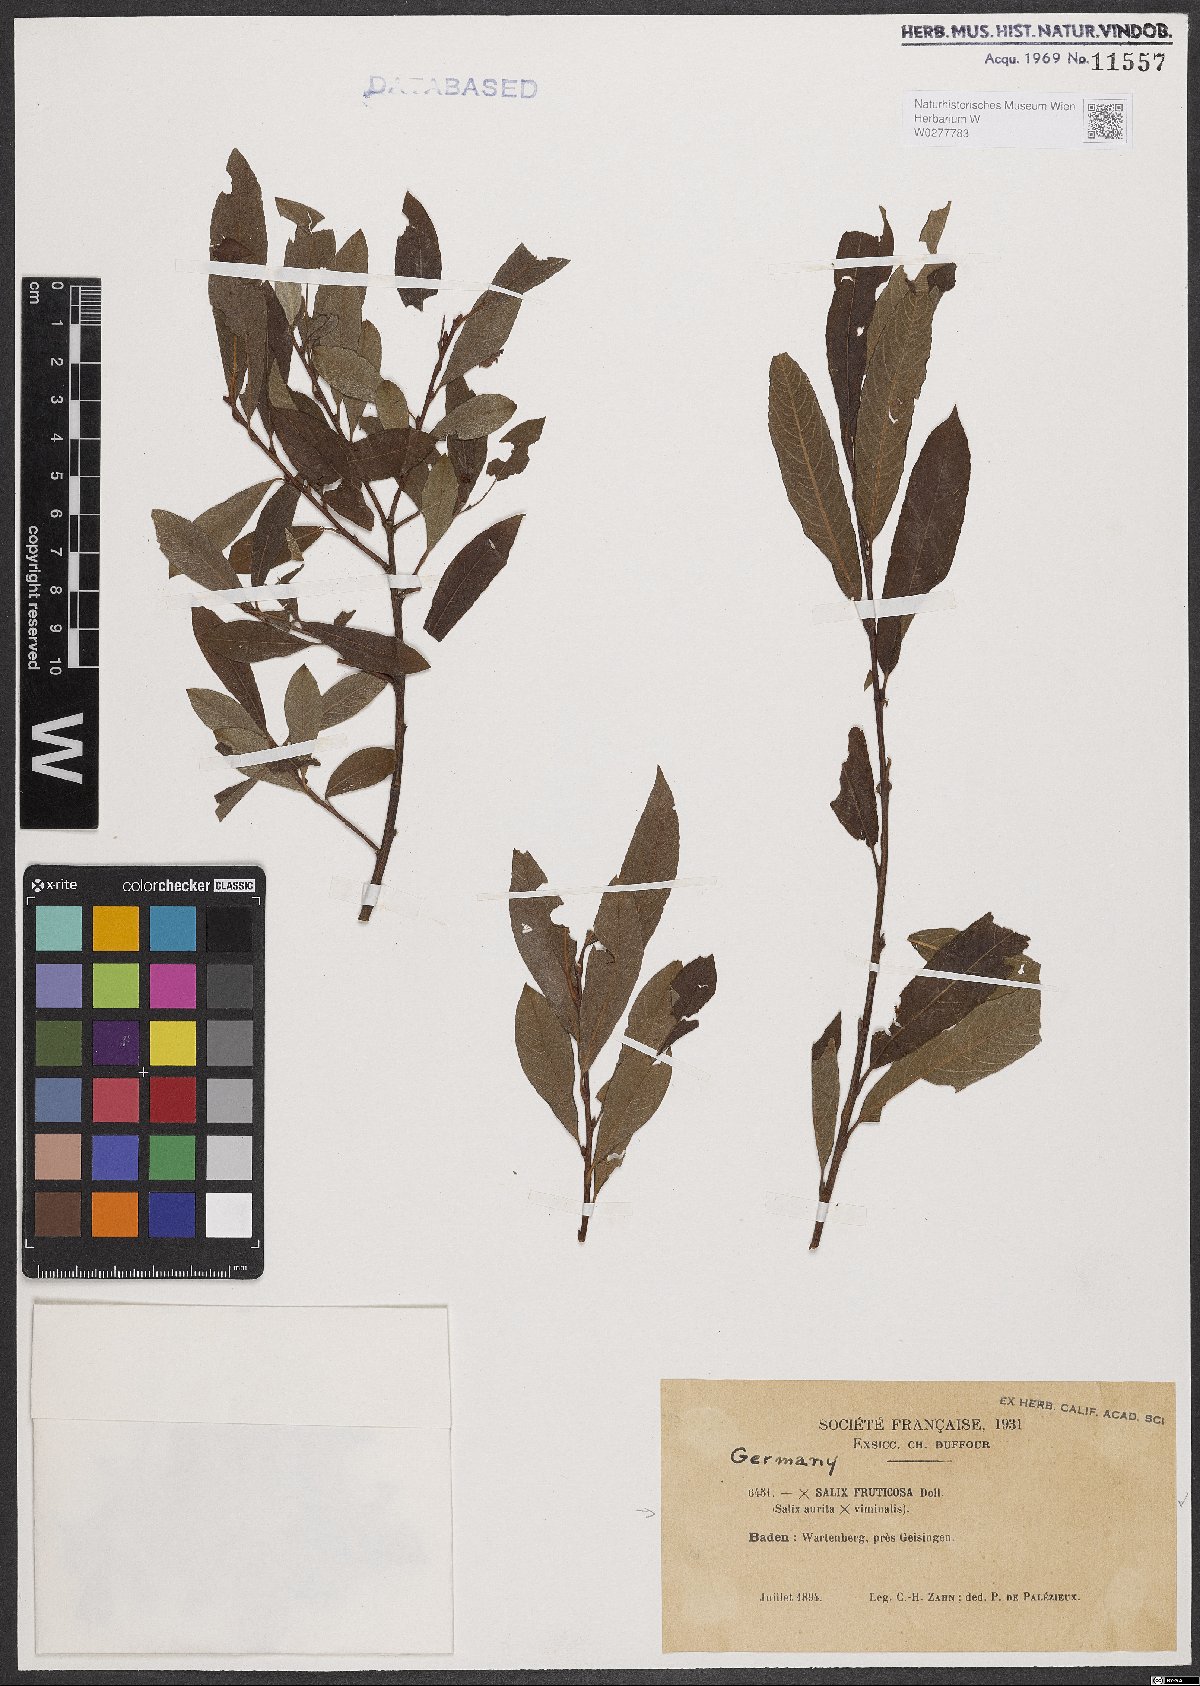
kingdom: Plantae
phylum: Tracheophyta
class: Magnoliopsida
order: Malpighiales
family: Salicaceae
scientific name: Salicaceae
